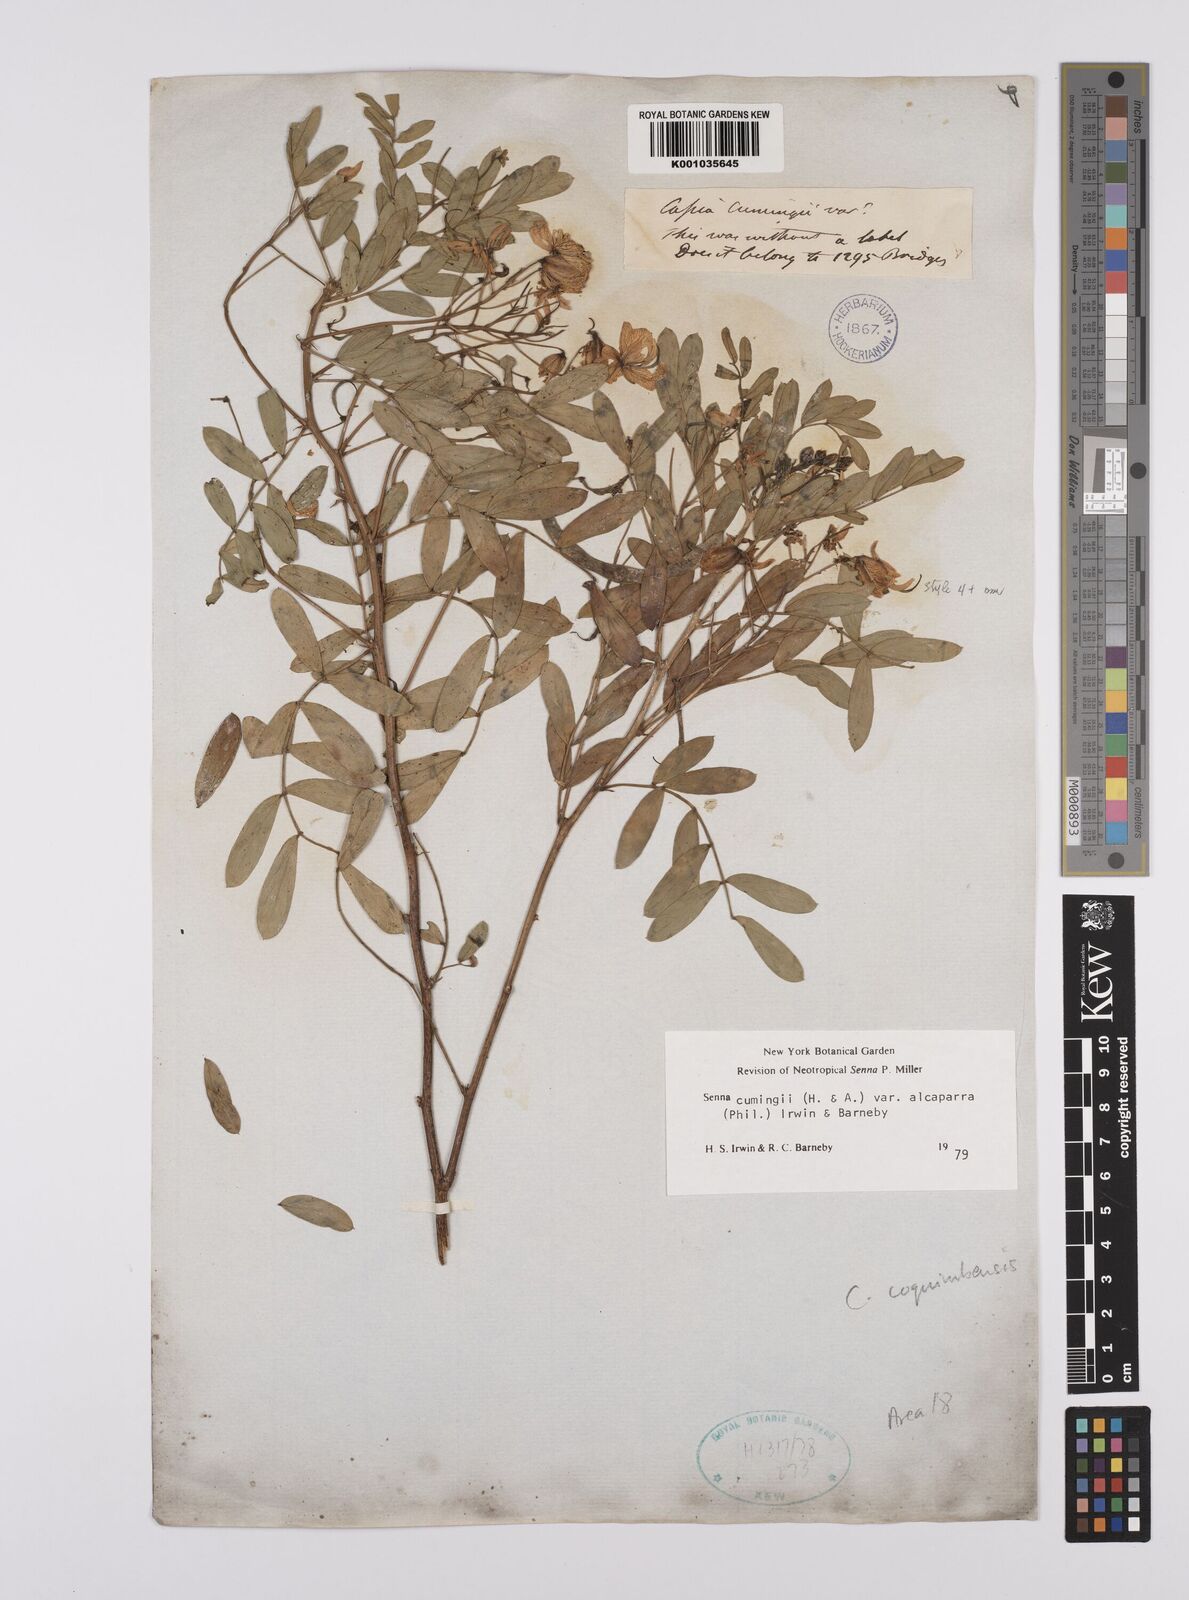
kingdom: Plantae
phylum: Tracheophyta
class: Magnoliopsida
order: Fabales
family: Fabaceae
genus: Senna
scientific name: Senna cumingii
